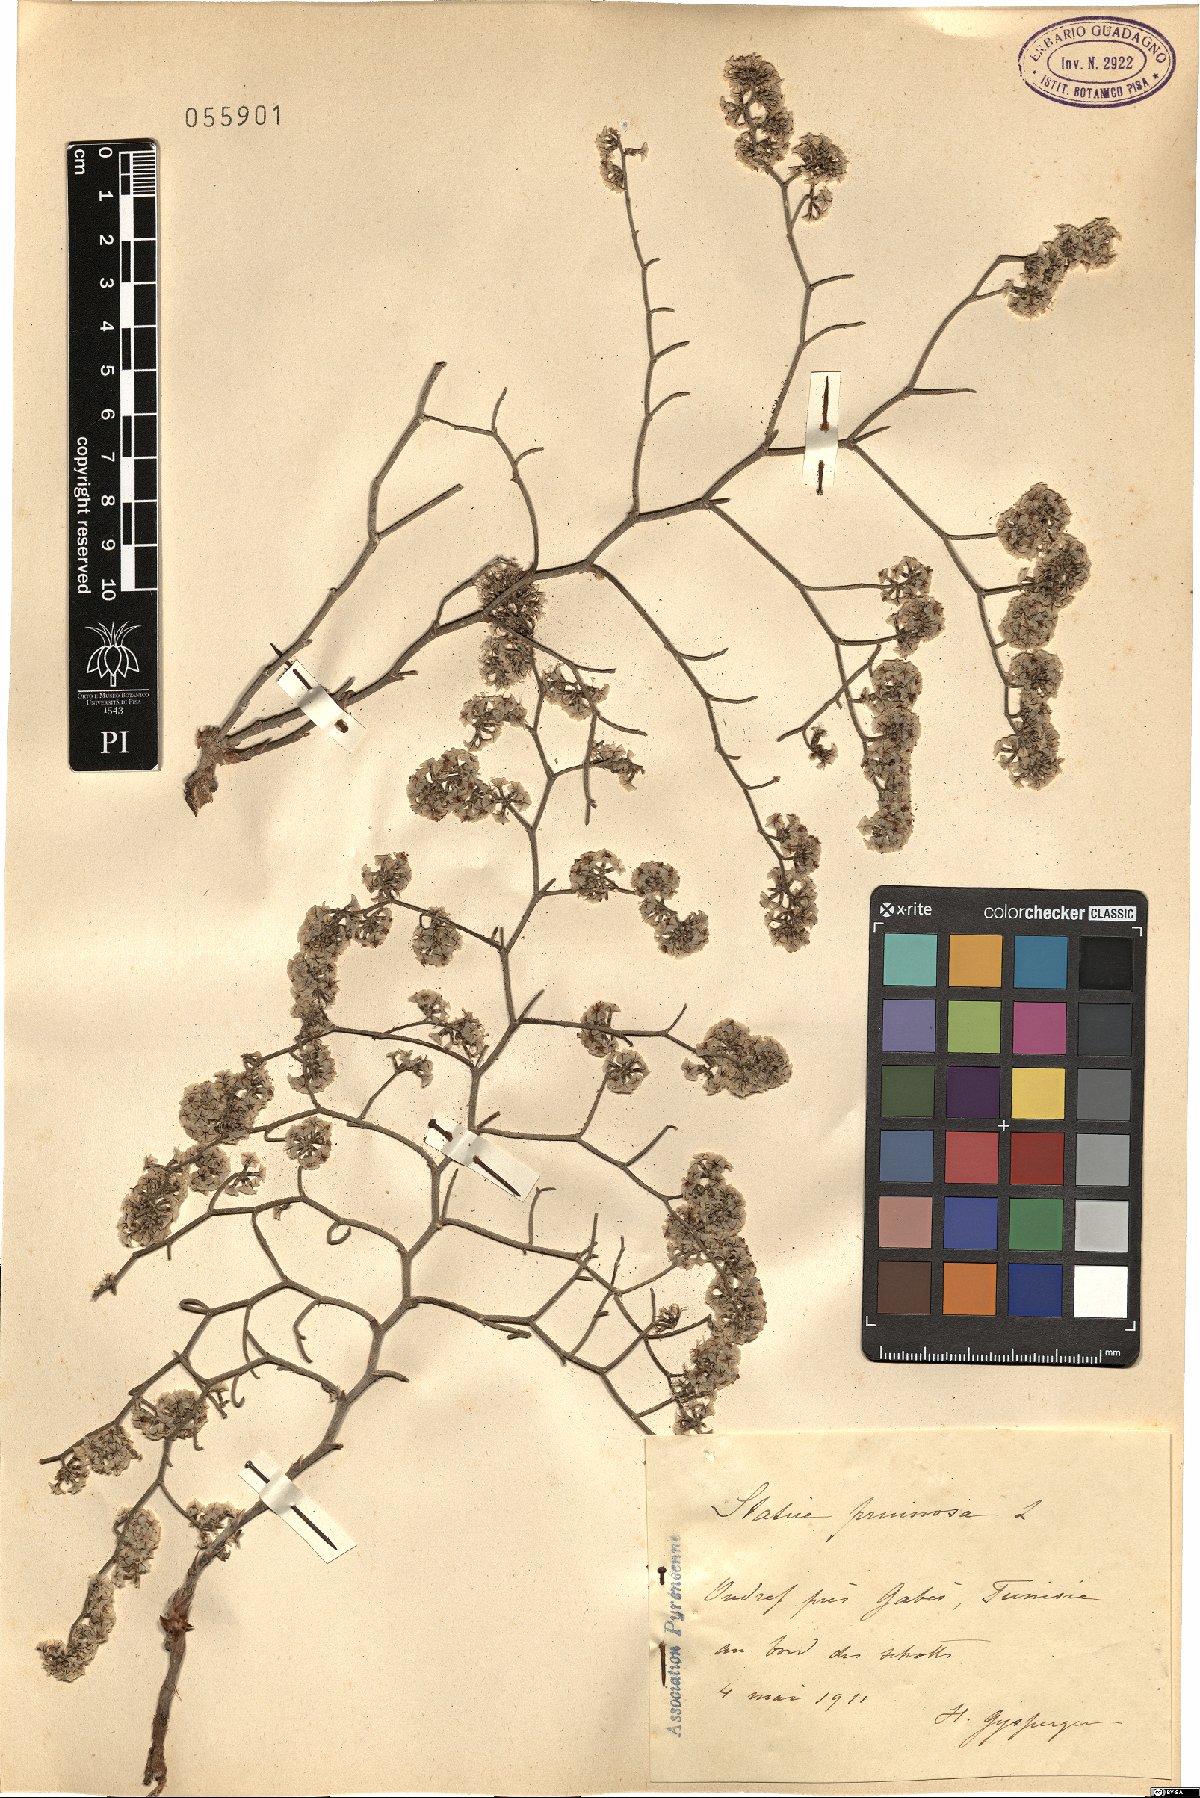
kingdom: Plantae
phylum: Tracheophyta
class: Magnoliopsida
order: Caryophyllales
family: Plumbaginaceae
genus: Limonium
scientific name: Limonium pruinosum
